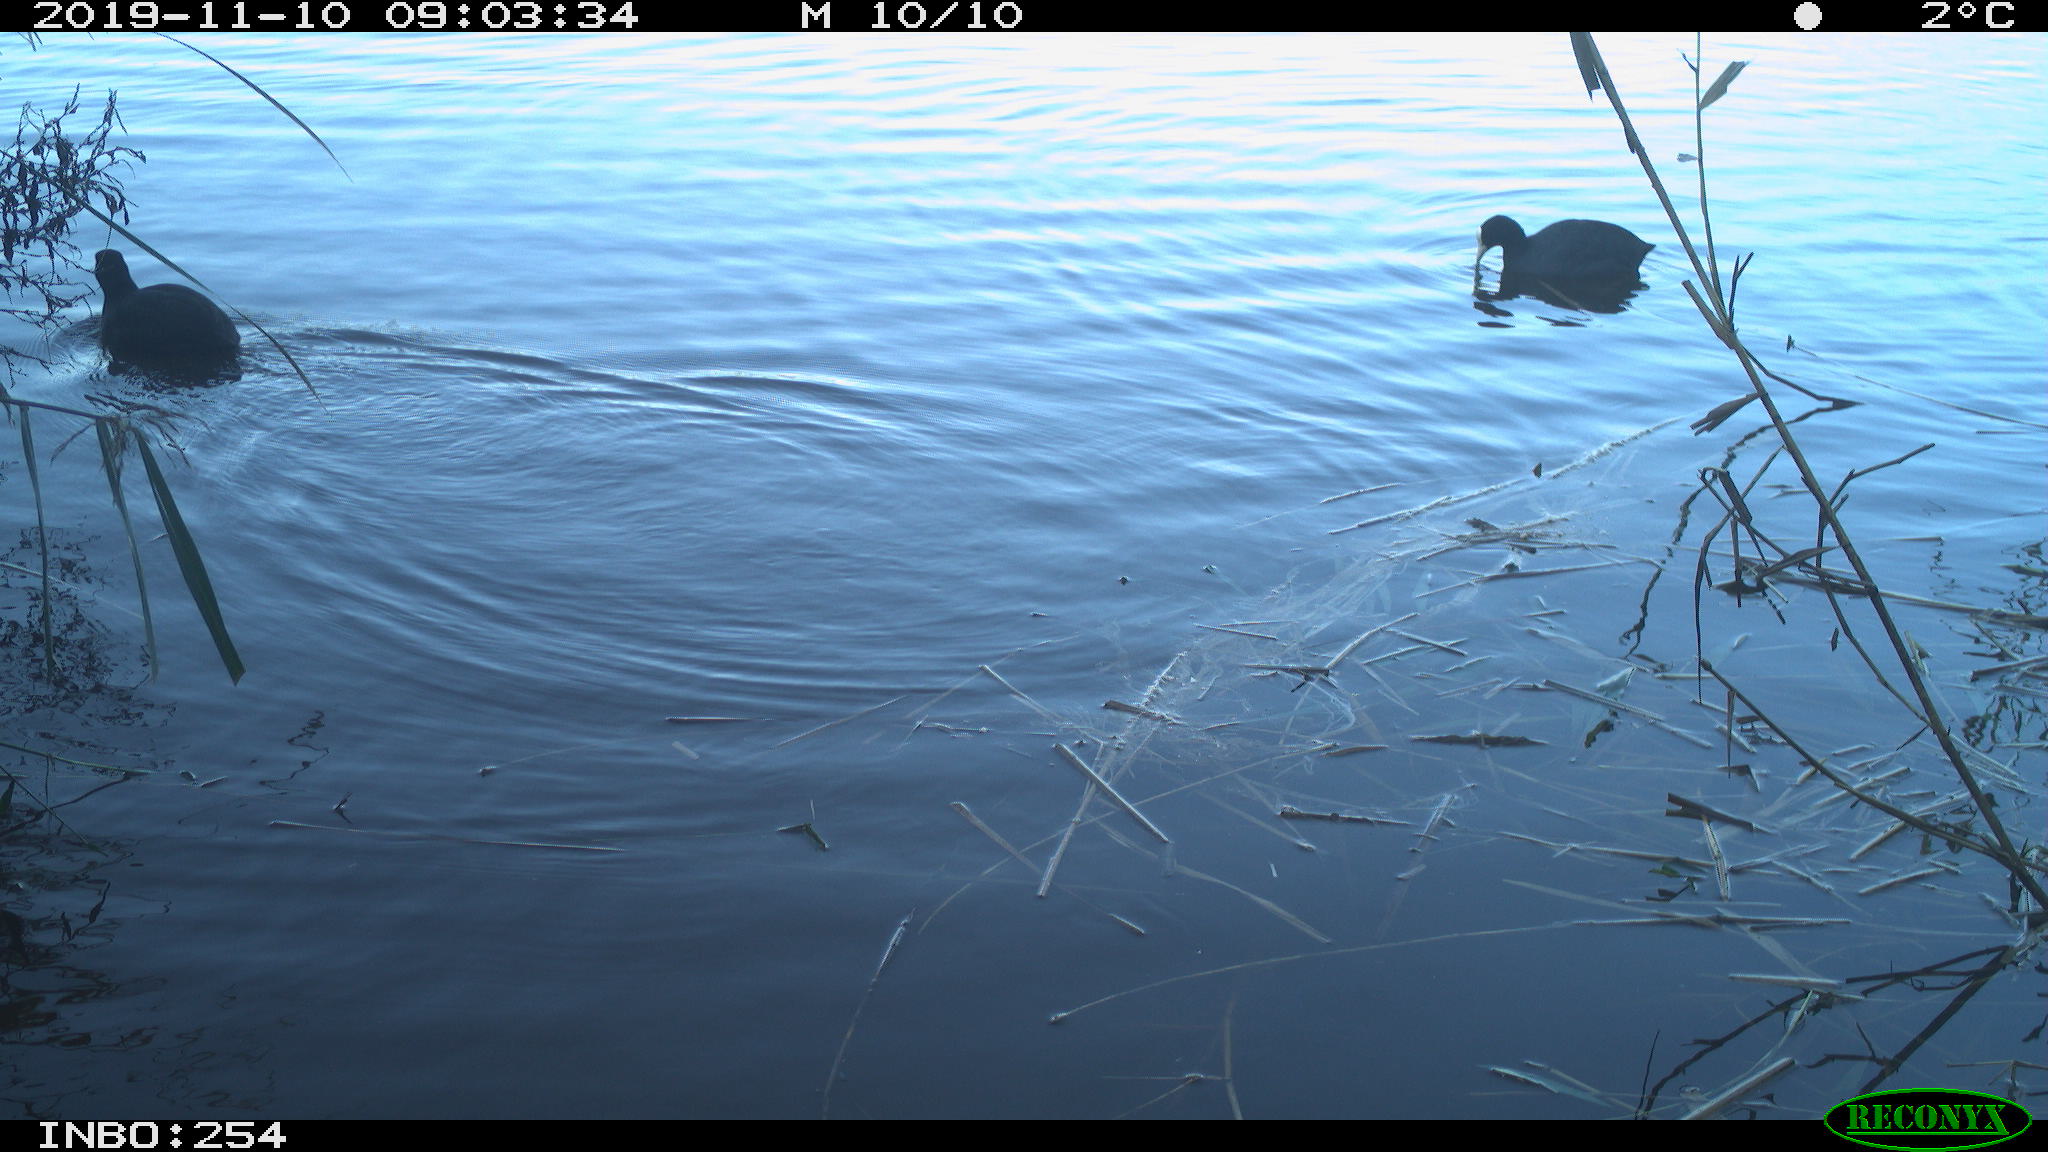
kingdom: Animalia
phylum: Chordata
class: Aves
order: Gruiformes
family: Rallidae
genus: Fulica
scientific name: Fulica atra
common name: Eurasian coot
